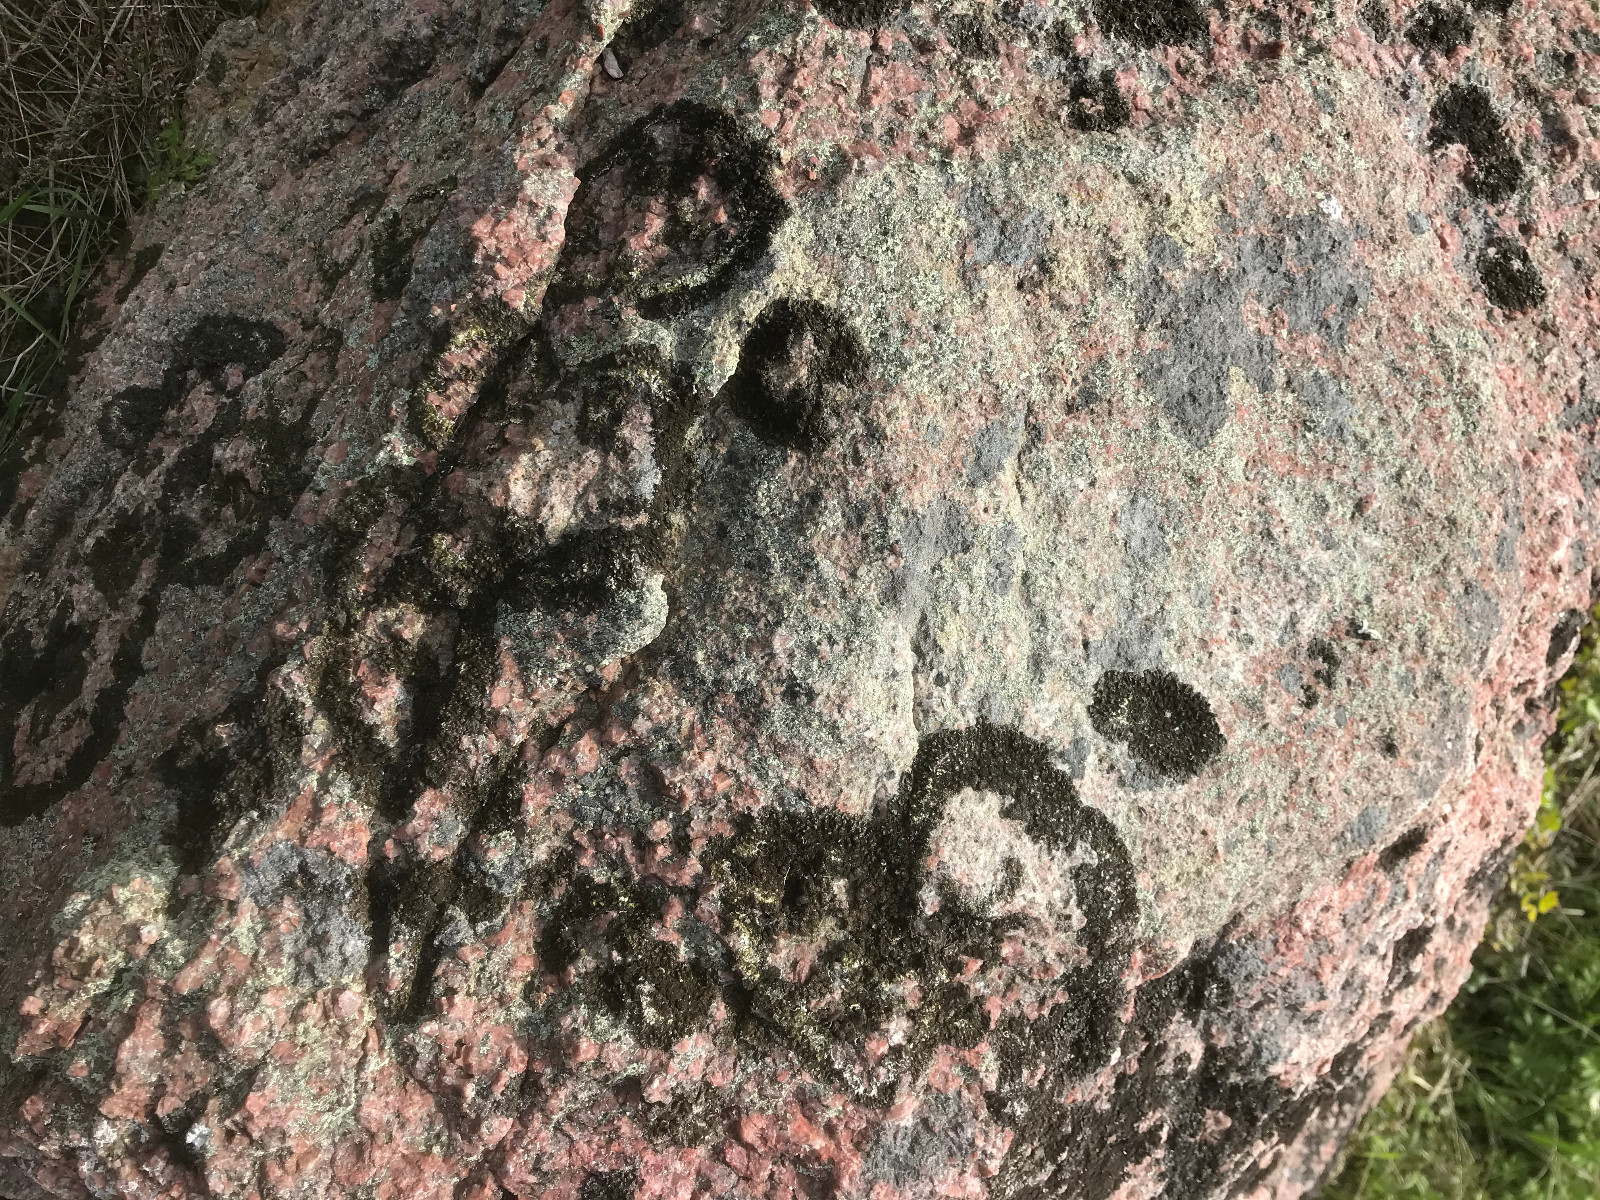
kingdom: Fungi
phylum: Ascomycota
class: Lecanoromycetes
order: Lecanorales
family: Parmeliaceae
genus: Melanelixia
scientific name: Melanelixia fuliginosa
